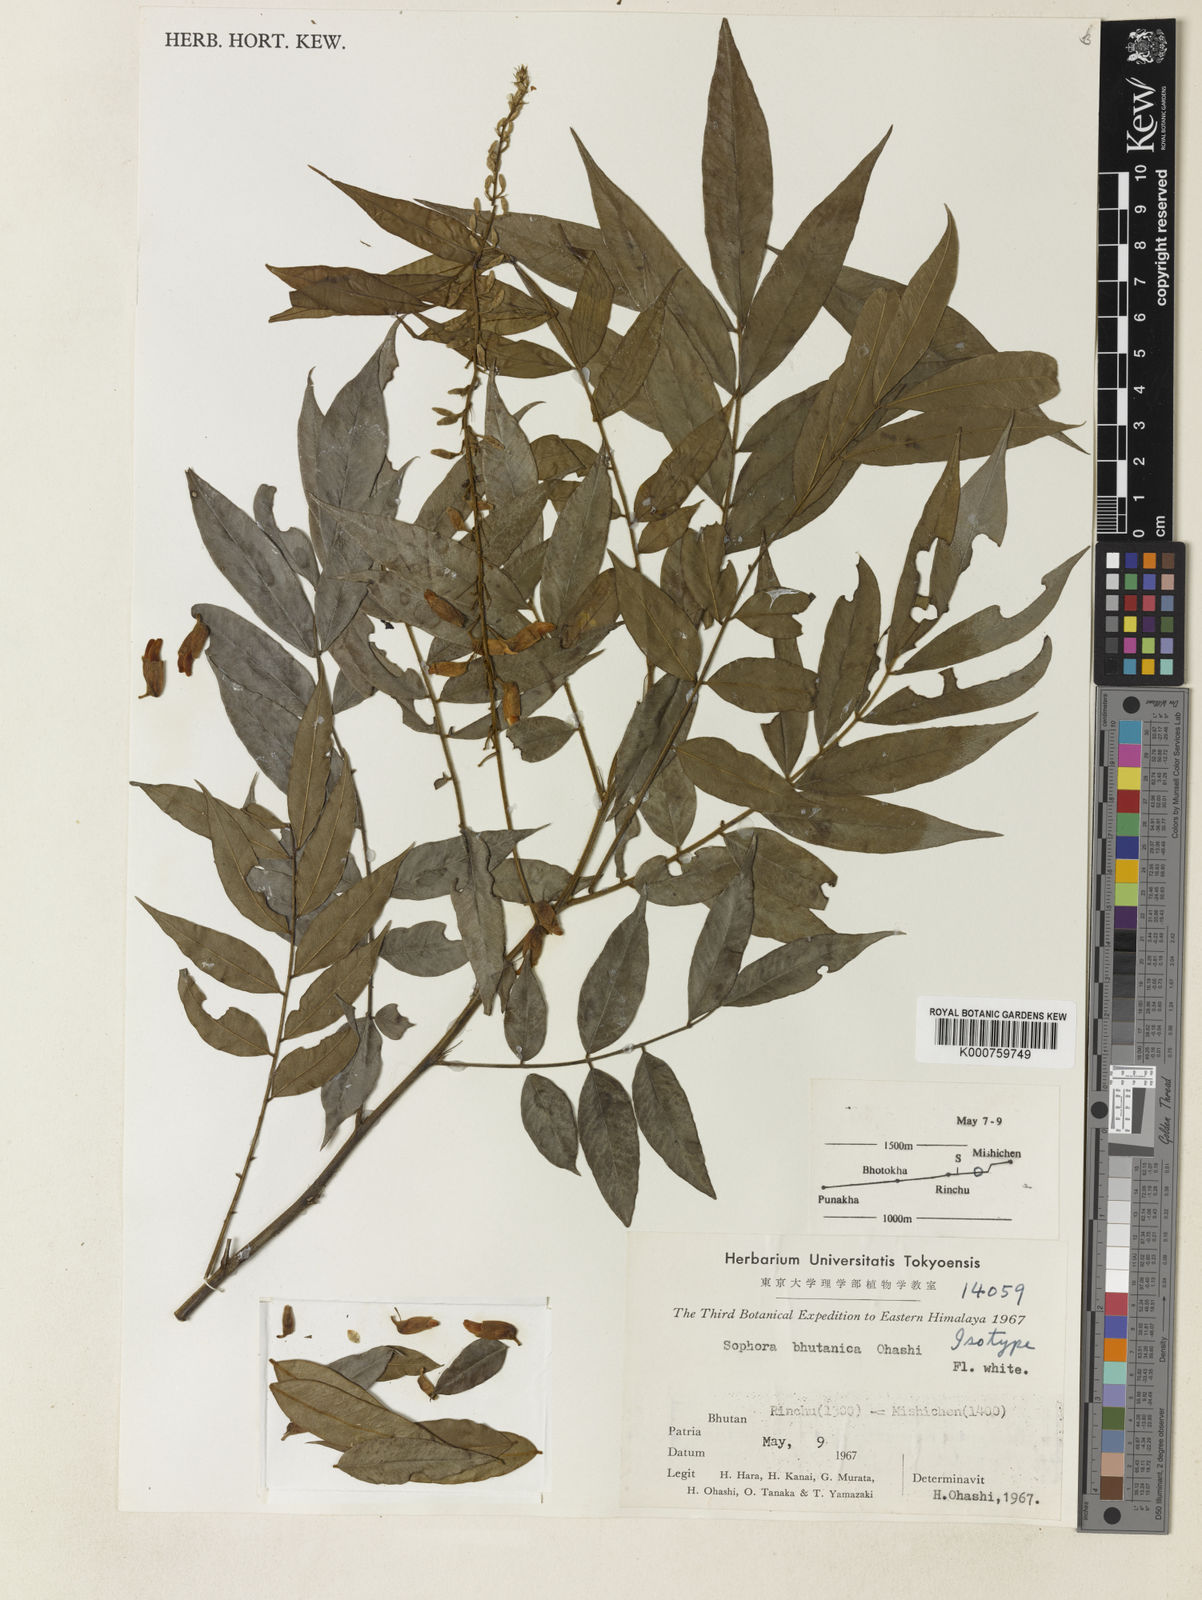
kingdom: Plantae
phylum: Tracheophyta
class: Magnoliopsida
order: Fabales
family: Fabaceae
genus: Sophora
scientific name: Sophora wightii
